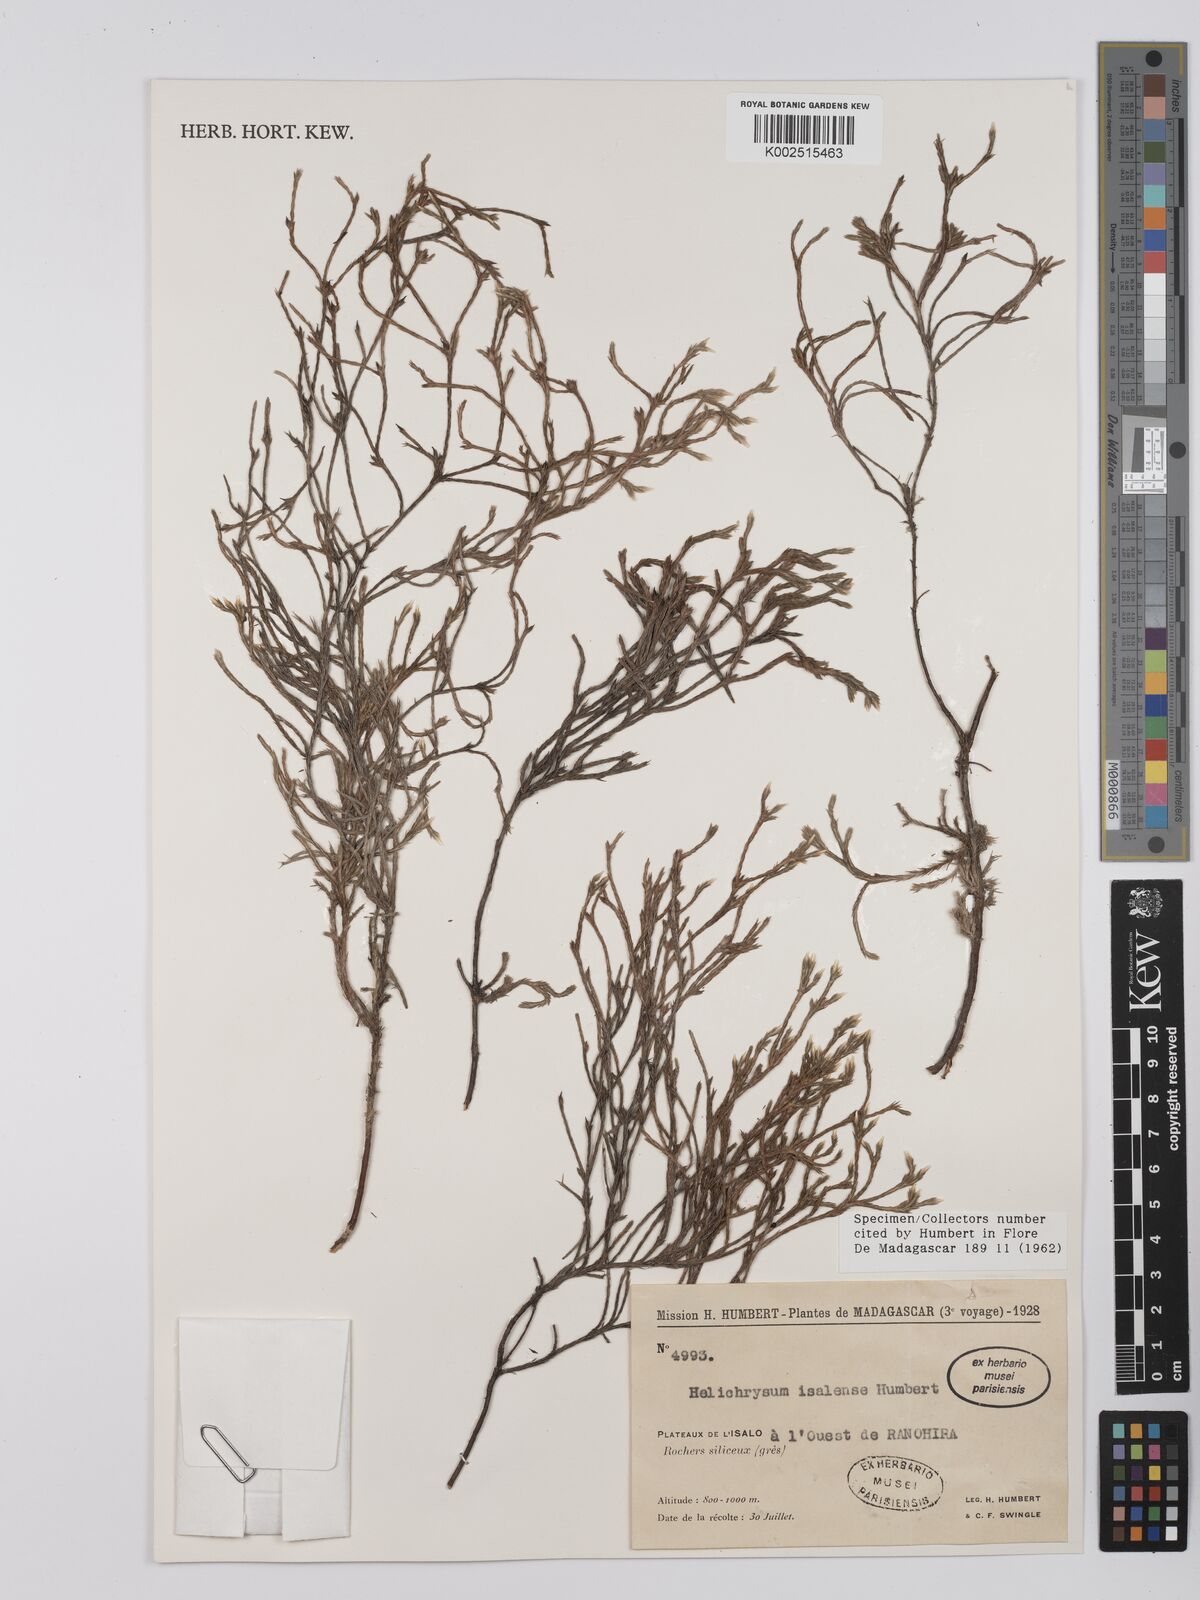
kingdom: Plantae
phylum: Tracheophyta
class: Magnoliopsida
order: Asterales
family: Asteraceae
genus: Helichrysum
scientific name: Helichrysum isalense
